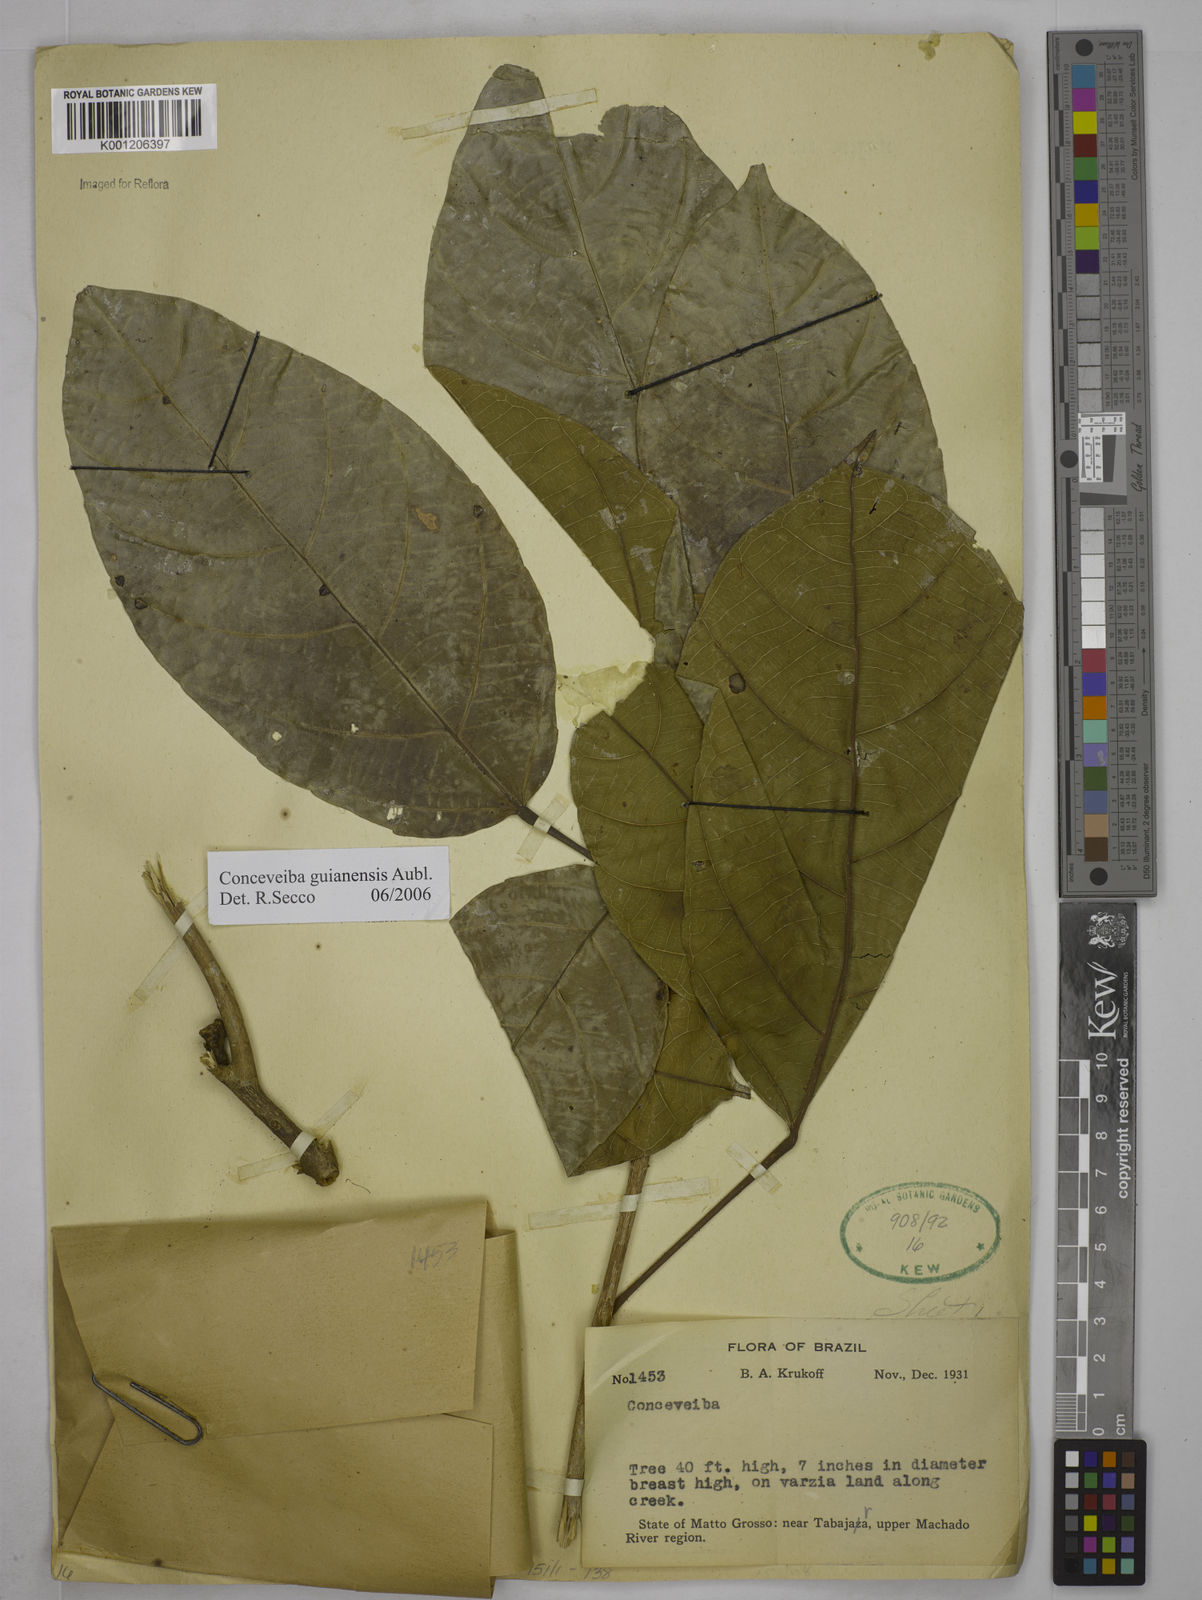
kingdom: Plantae
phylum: Tracheophyta
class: Magnoliopsida
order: Malpighiales
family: Euphorbiaceae
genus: Conceveiba
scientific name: Conceveiba guianensis
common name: Poatoru
